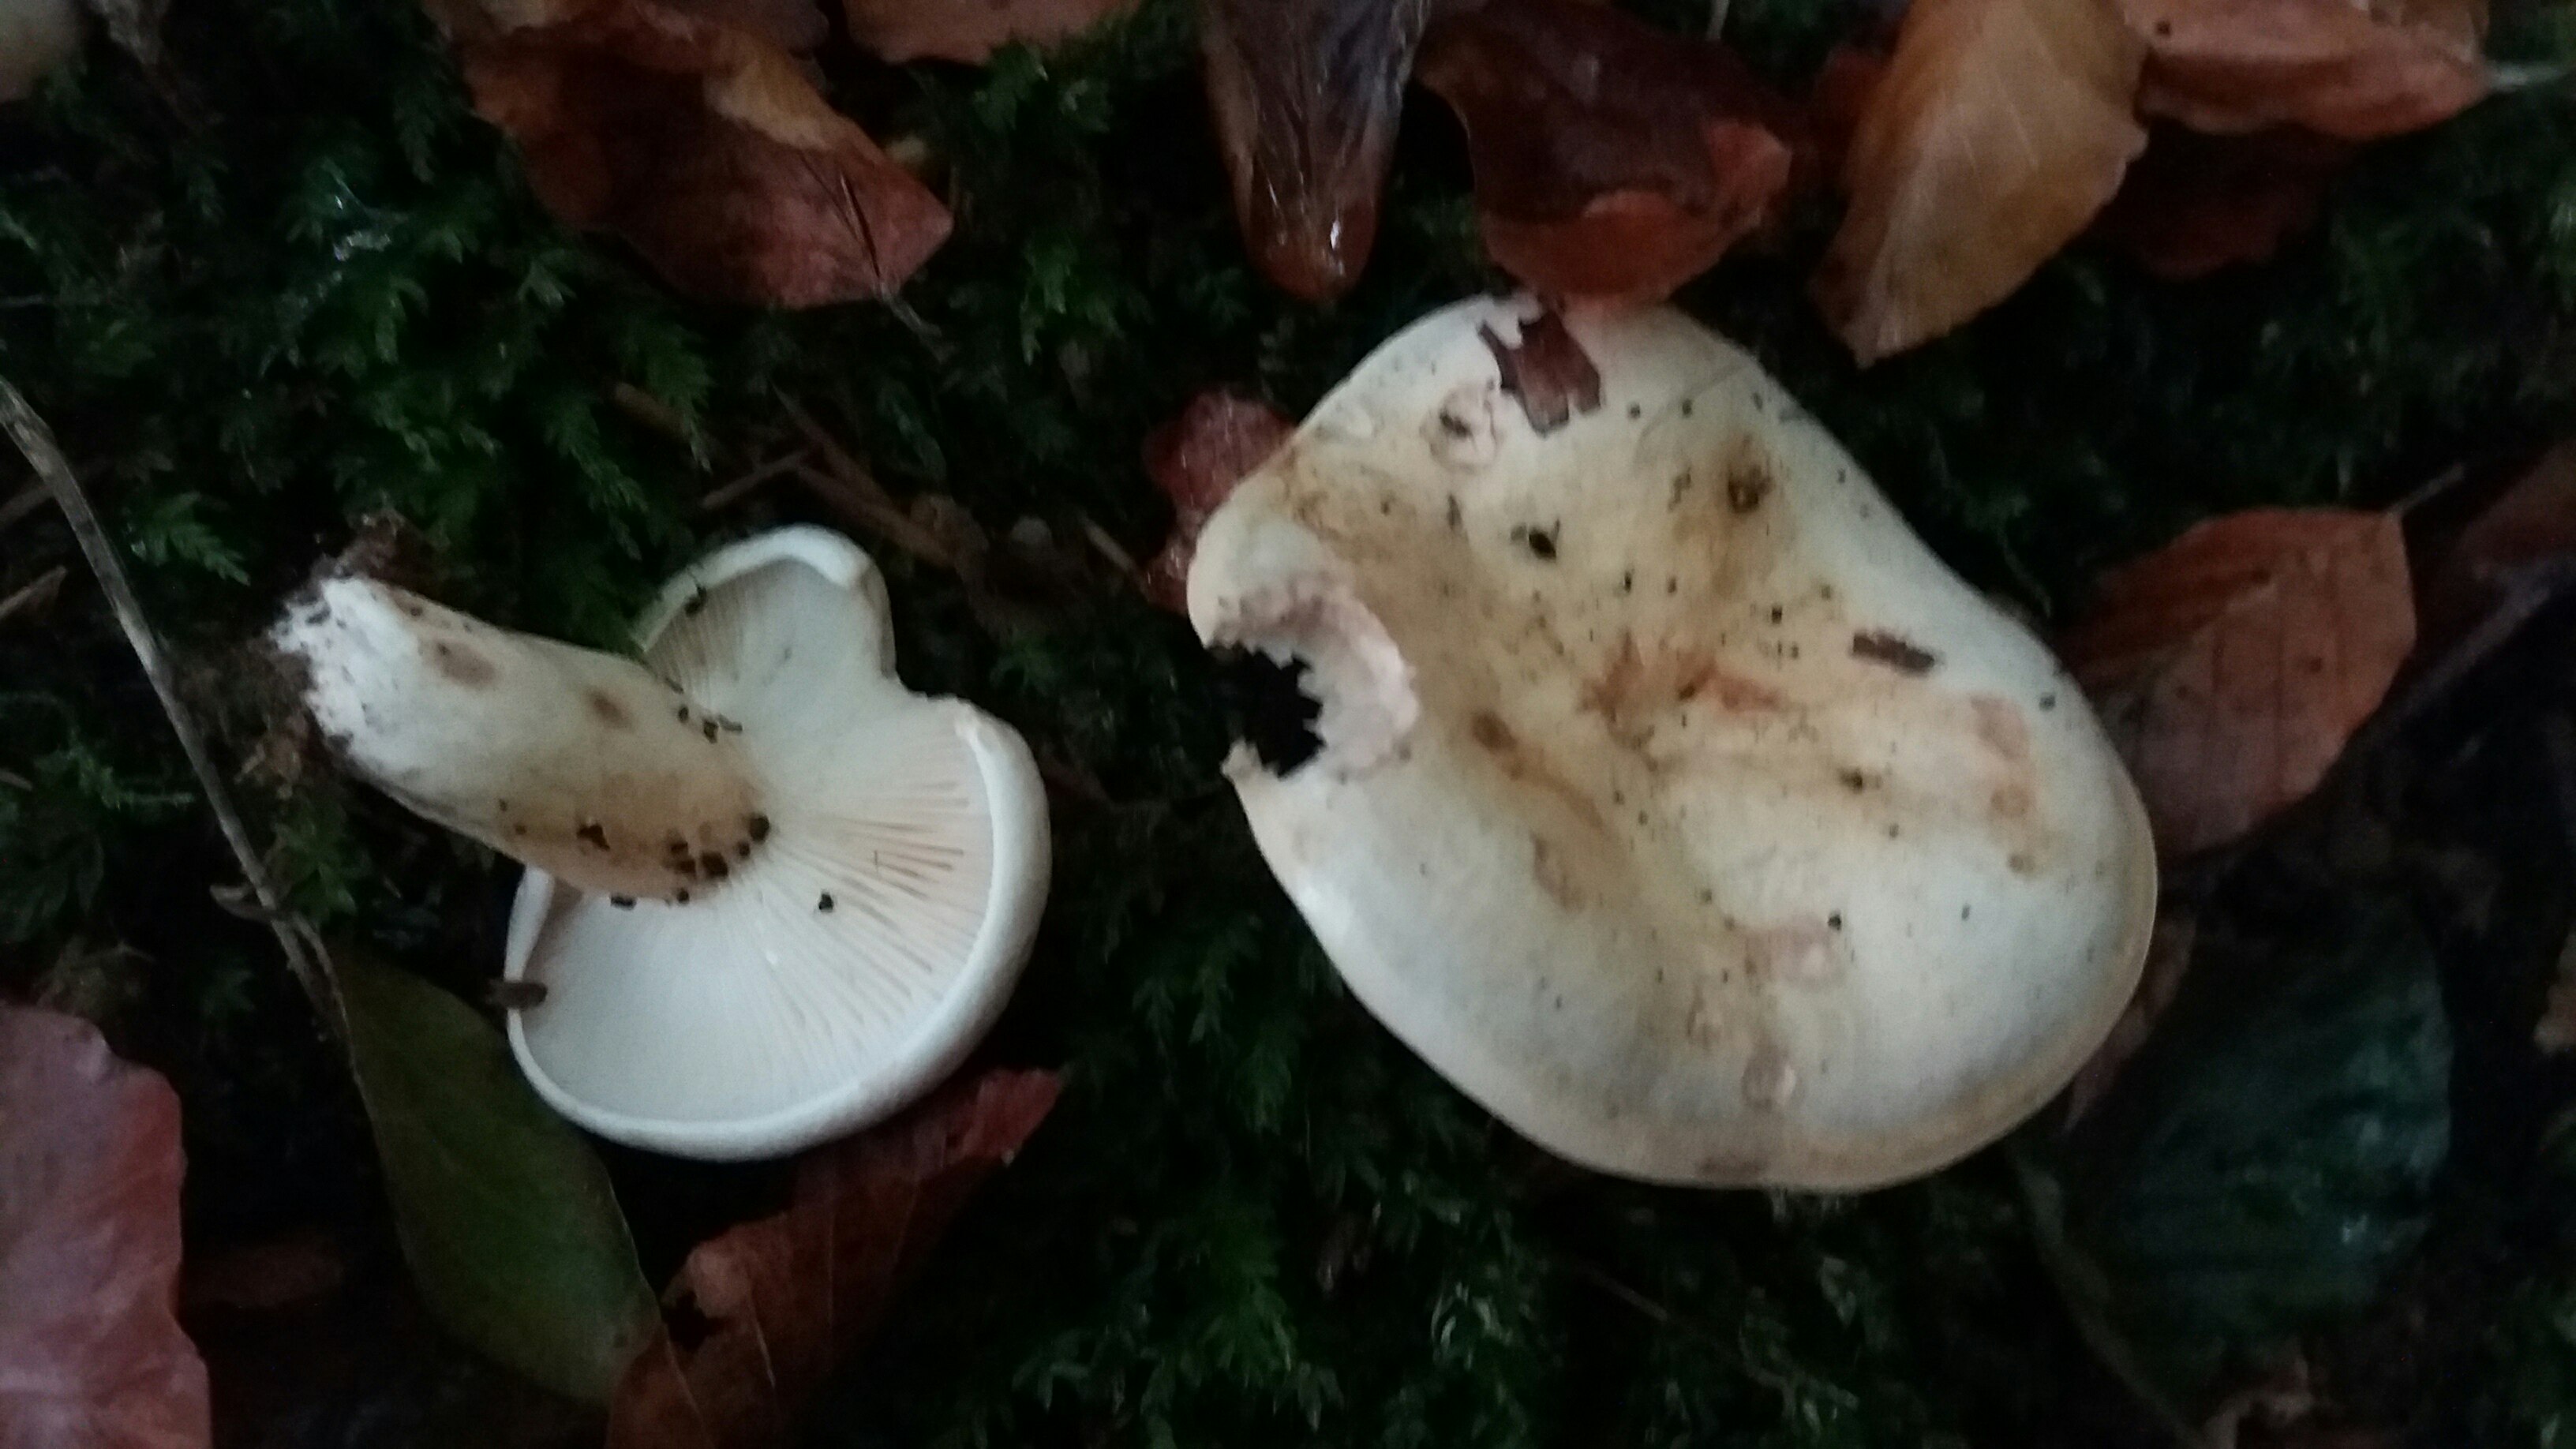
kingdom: Fungi
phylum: Basidiomycota
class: Agaricomycetes
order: Russulales
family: Russulaceae
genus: Lactarius
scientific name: Lactarius pallidus
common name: bleg mælkehat
